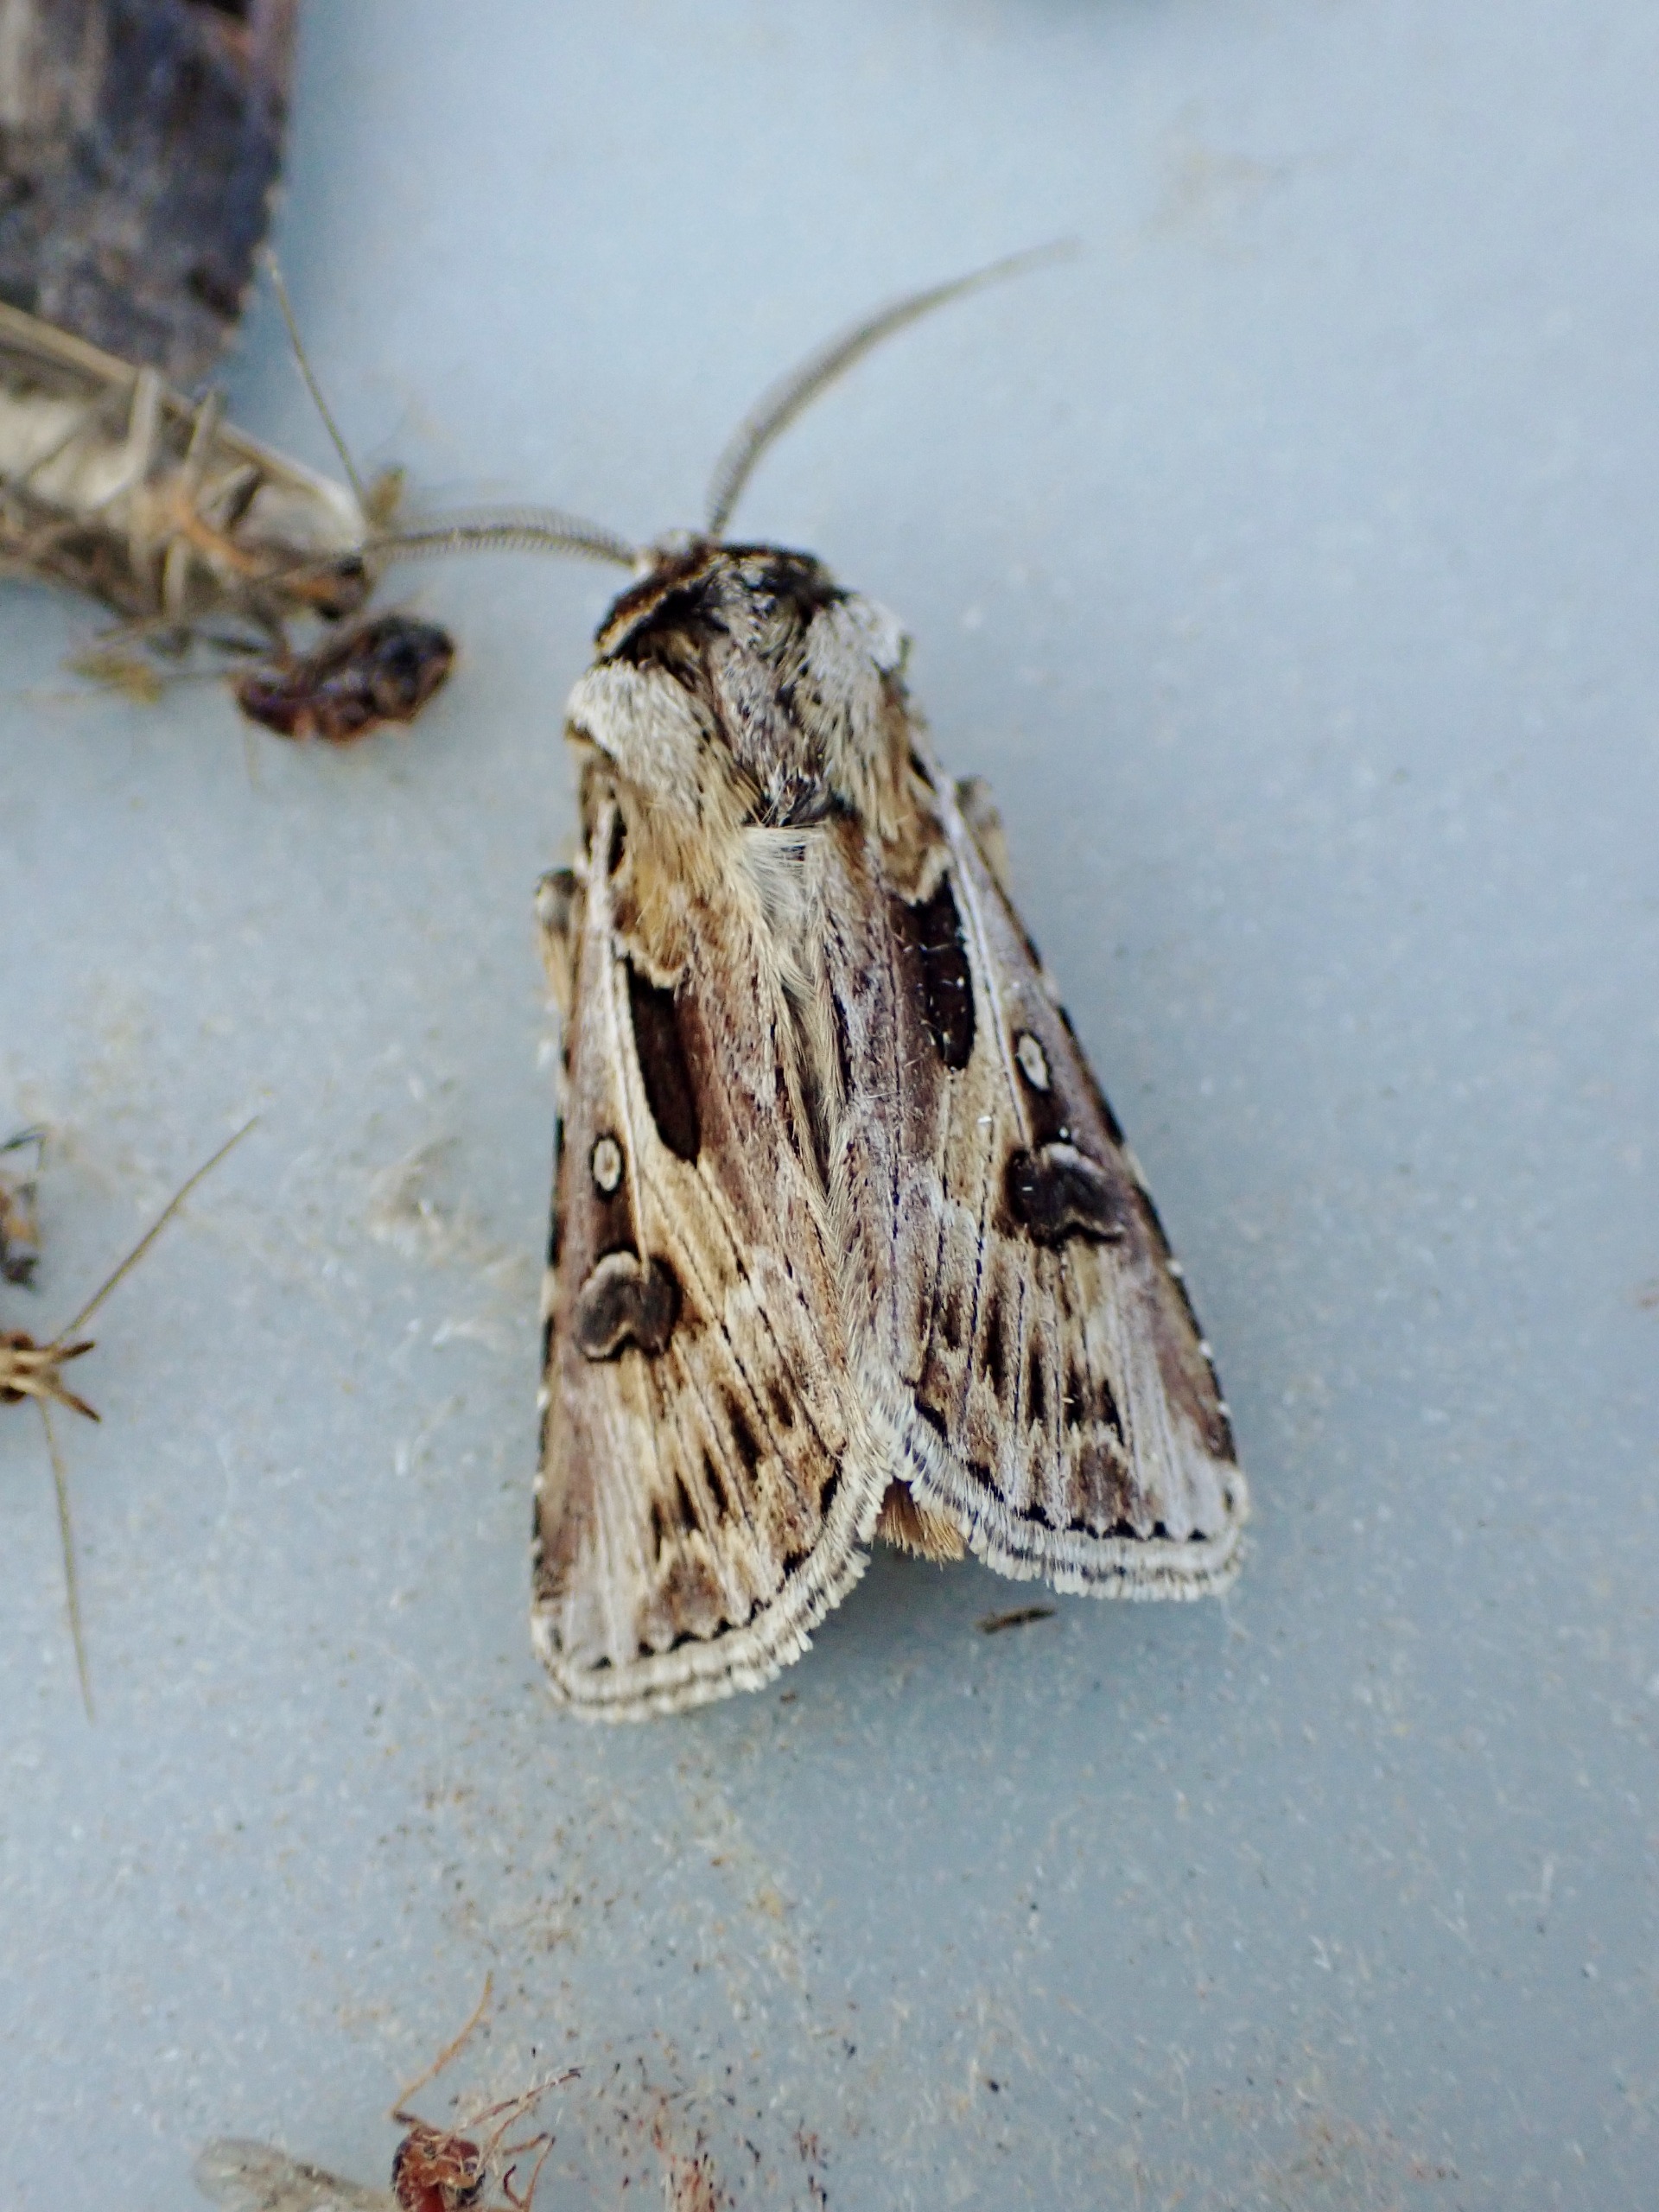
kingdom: Animalia
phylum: Arthropoda
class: Insecta
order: Lepidoptera
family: Noctuidae
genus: Agrotis
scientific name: Agrotis vestigialis
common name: Strand-landmand
